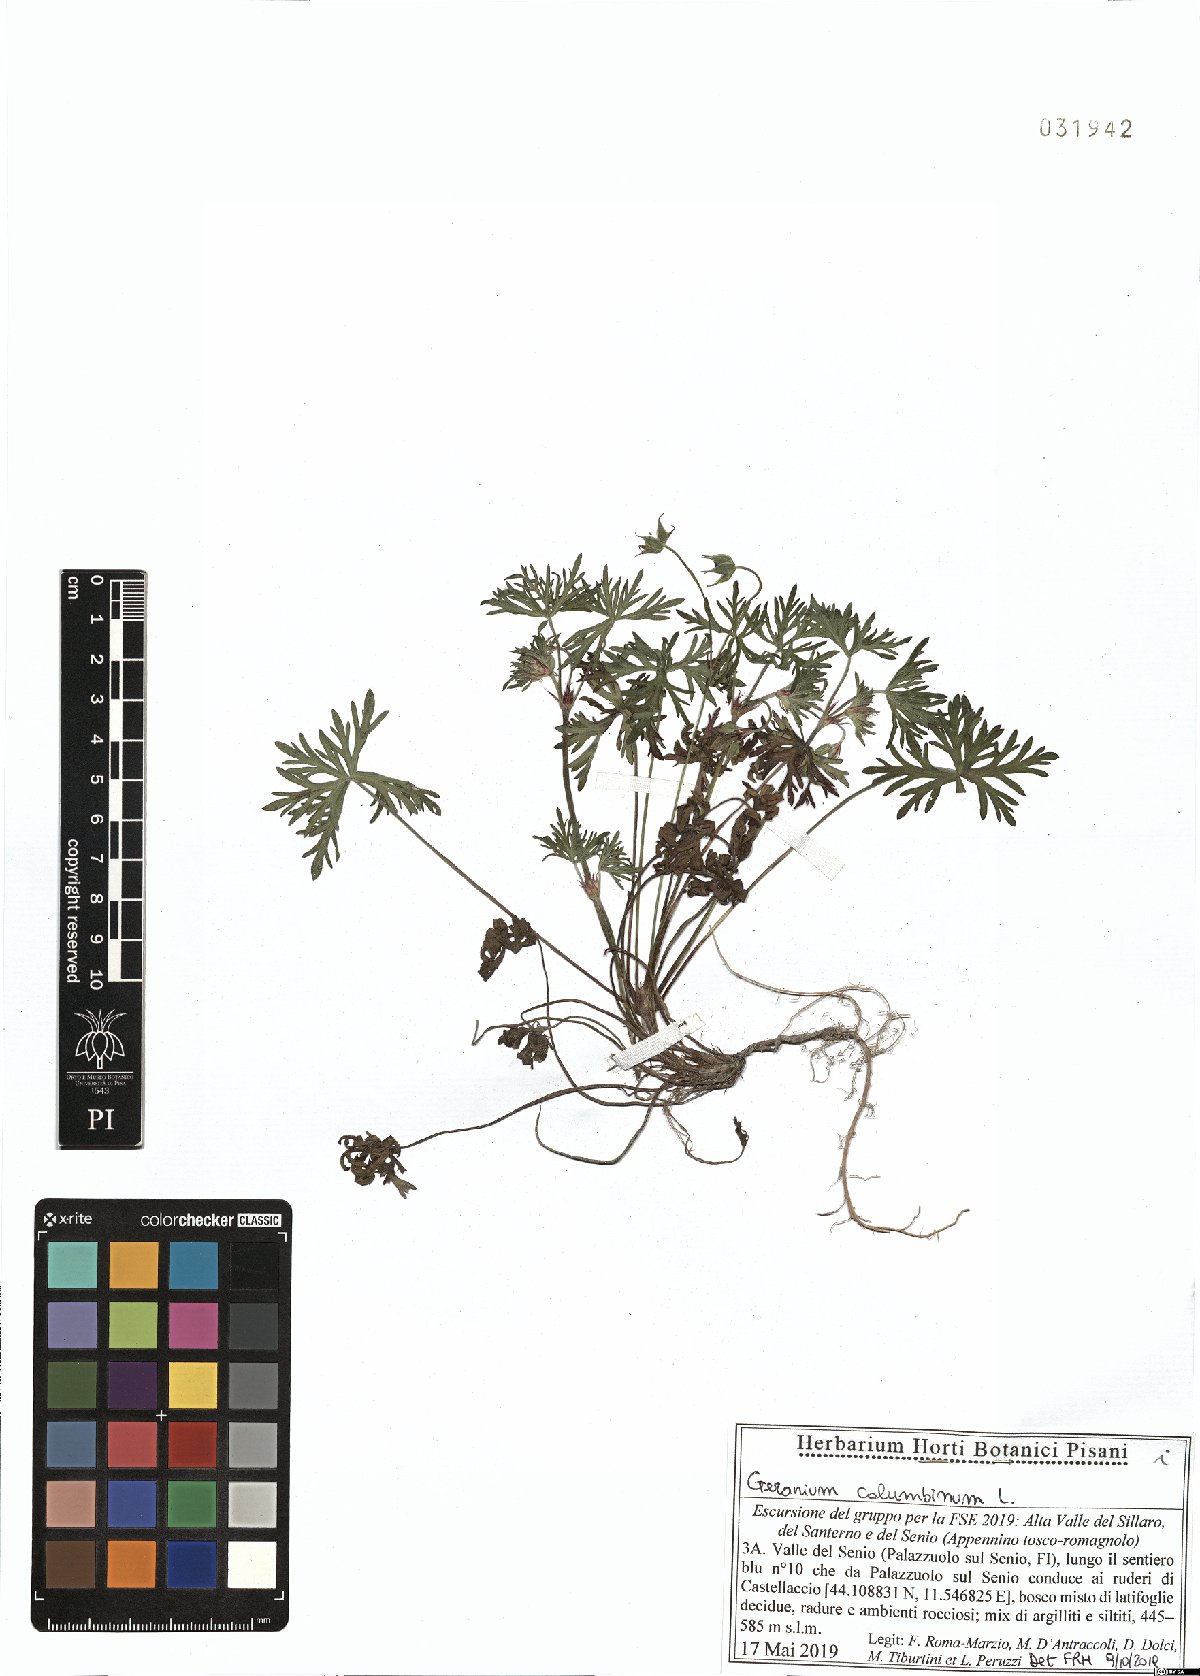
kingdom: Plantae
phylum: Tracheophyta
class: Magnoliopsida
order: Geraniales
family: Geraniaceae
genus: Geranium
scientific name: Geranium columbinum
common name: Long-stalked crane's-bill
